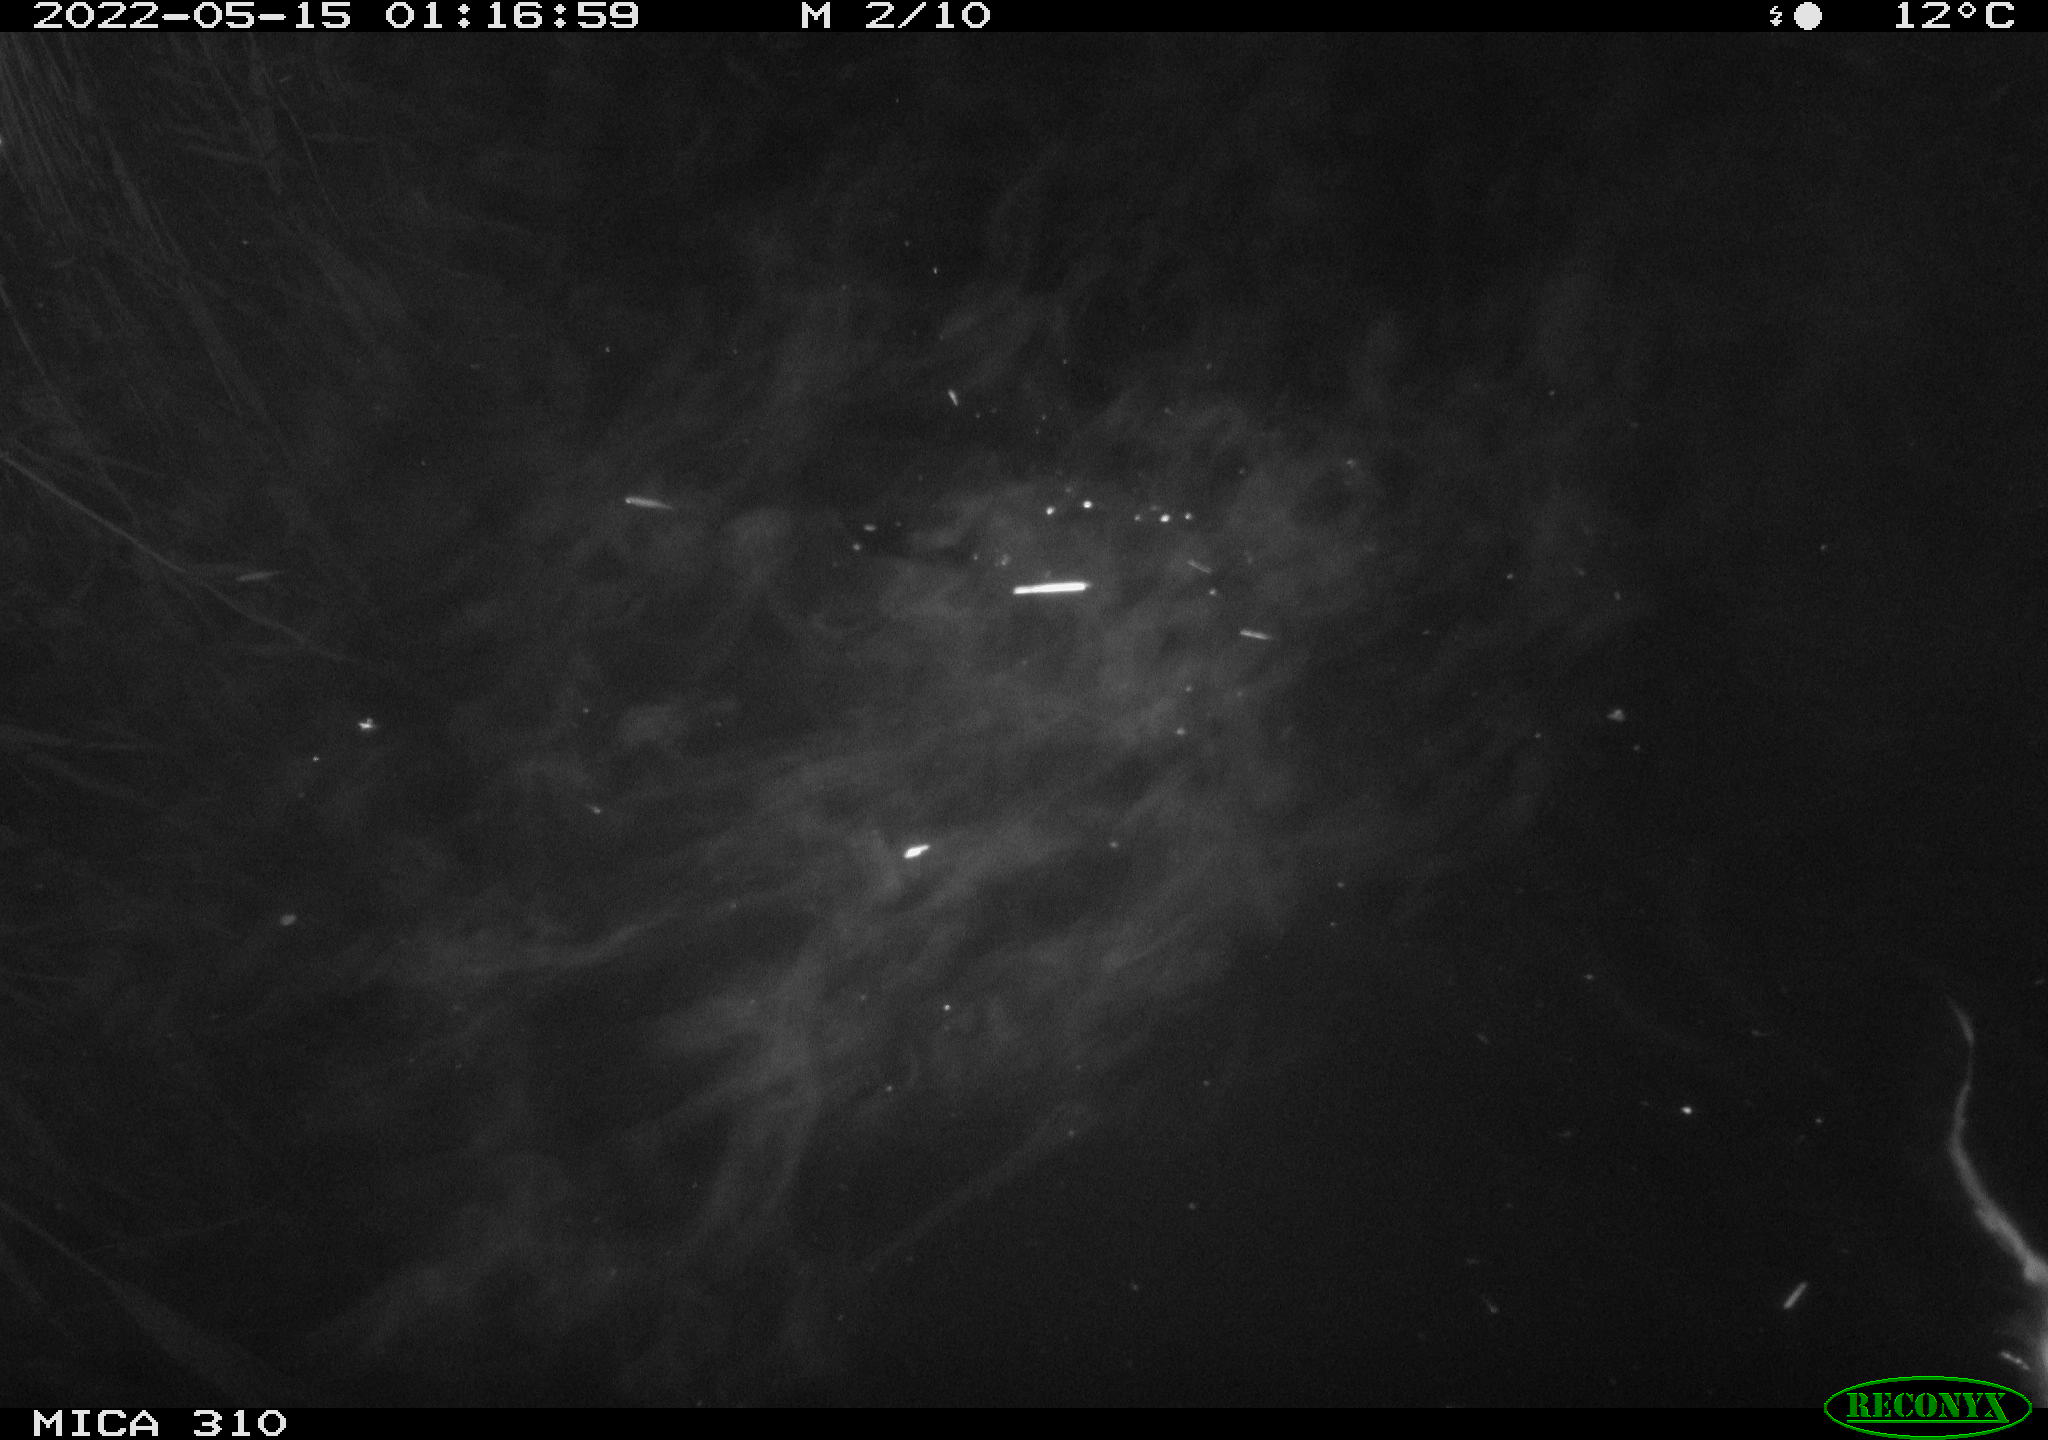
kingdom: Animalia
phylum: Chordata
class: Mammalia
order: Rodentia
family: Cricetidae
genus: Ondatra
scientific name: Ondatra zibethicus
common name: Muskrat
